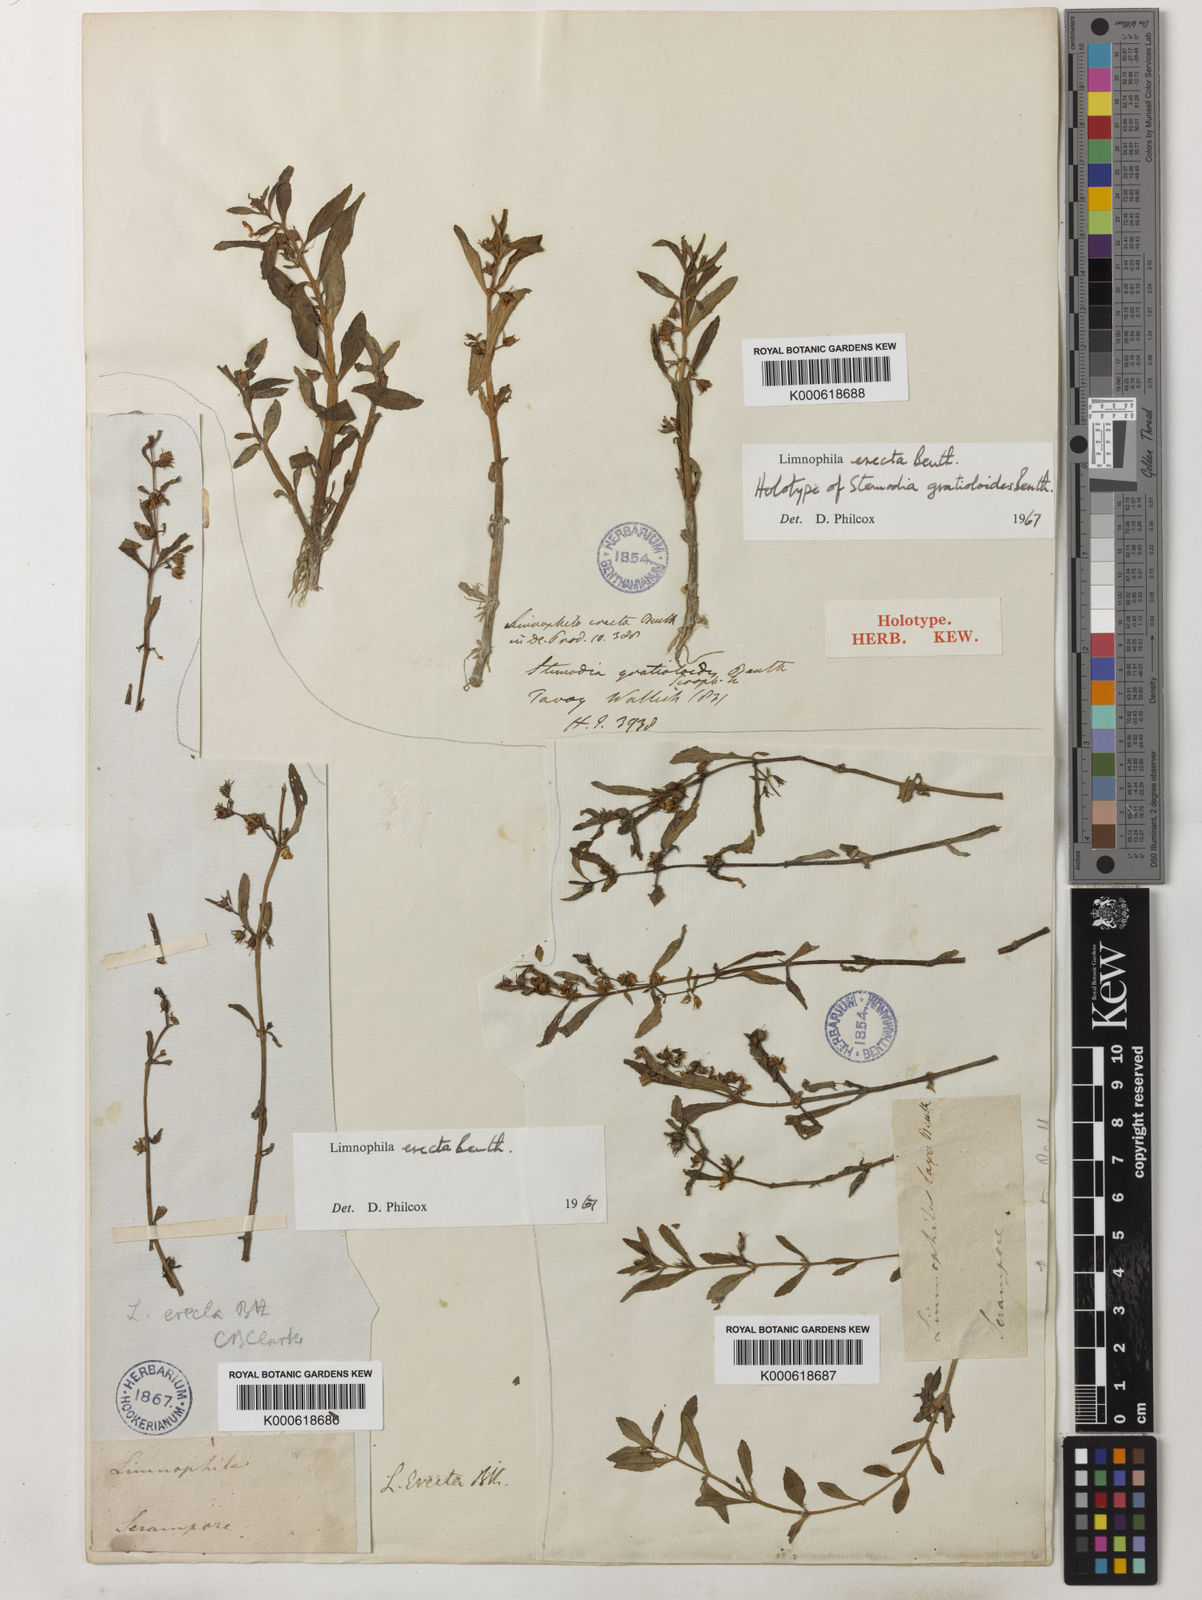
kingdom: Plantae
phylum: Tracheophyta
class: Magnoliopsida
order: Lamiales
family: Plantaginaceae
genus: Limnophila
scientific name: Limnophila erecta
